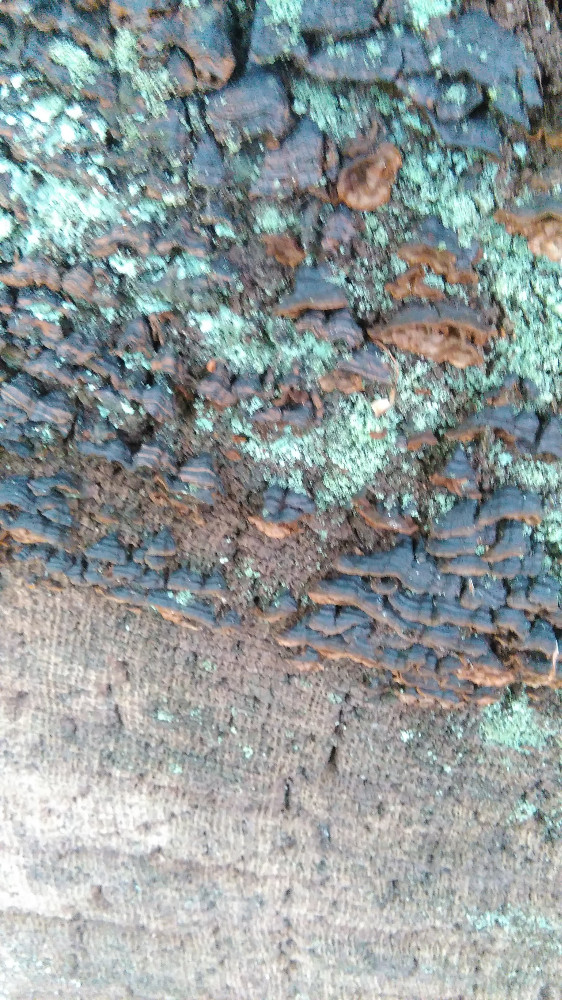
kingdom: Fungi
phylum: Basidiomycota
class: Agaricomycetes
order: Hymenochaetales
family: Hymenochaetaceae
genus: Hymenochaete
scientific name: Hymenochaete rubiginosa
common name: stiv ruslædersvamp
